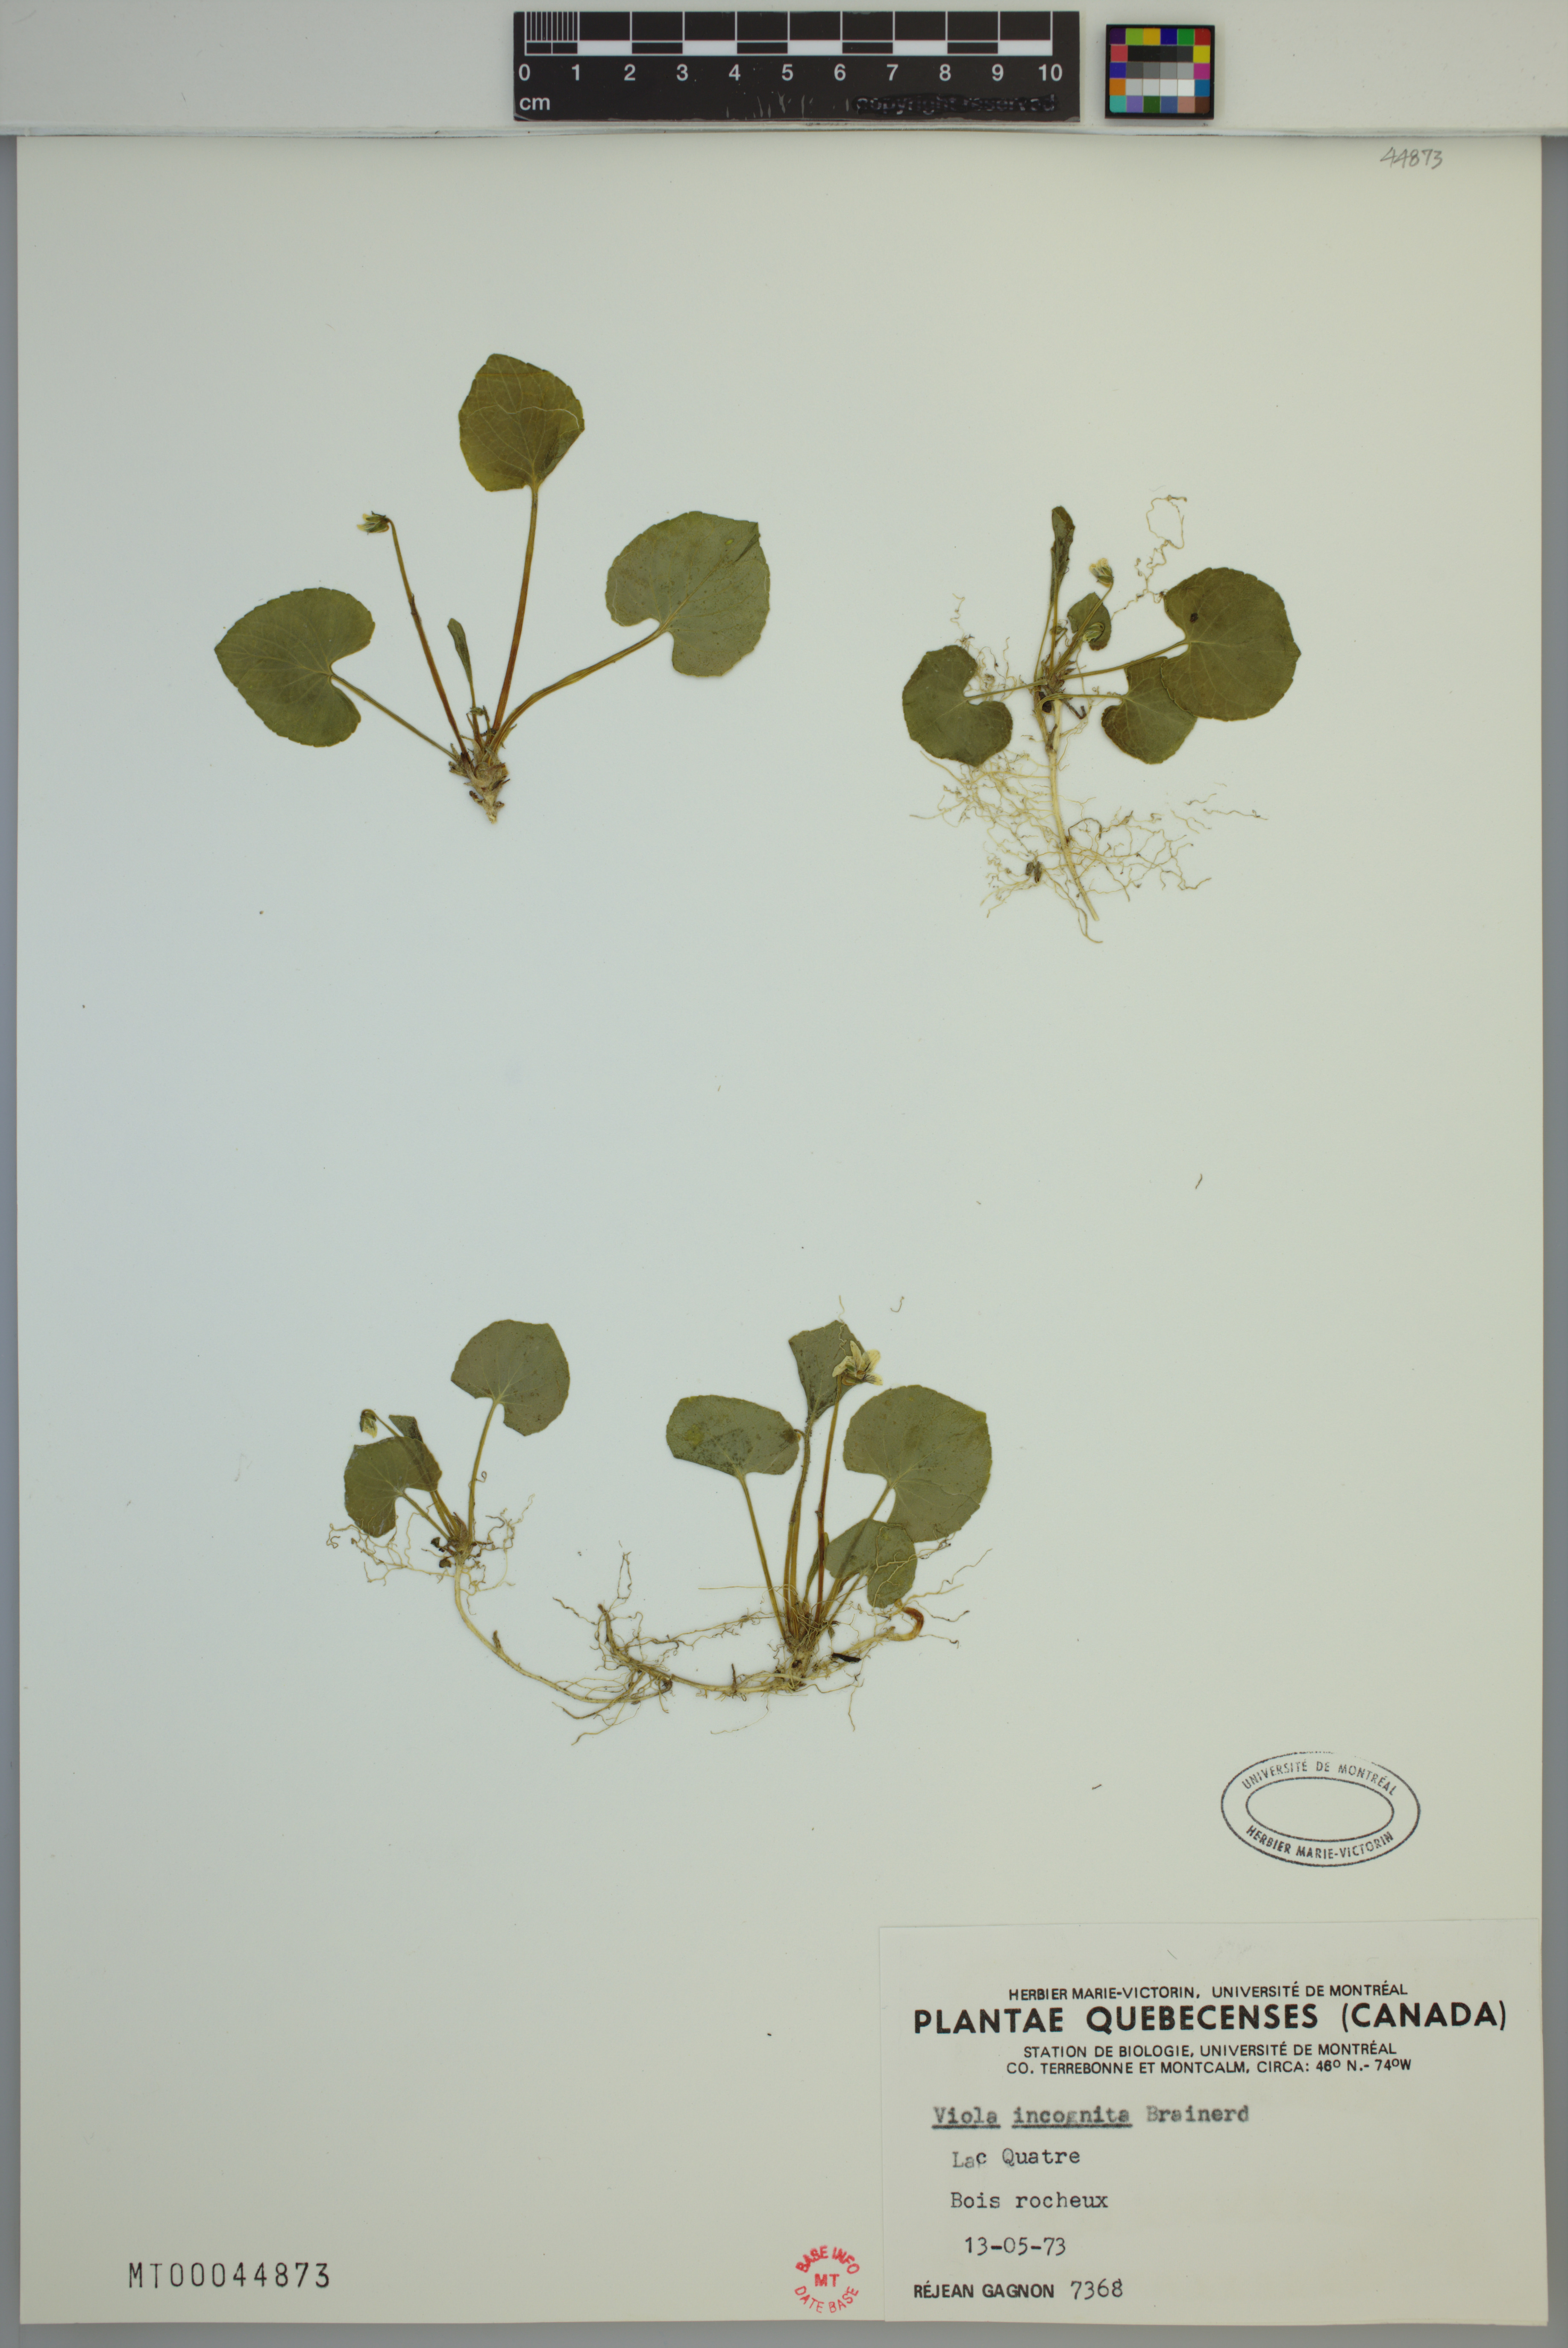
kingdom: Plantae
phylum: Tracheophyta
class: Magnoliopsida
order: Malpighiales
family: Violaceae
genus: Viola
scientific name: Viola blanda
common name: Sweet white violet
